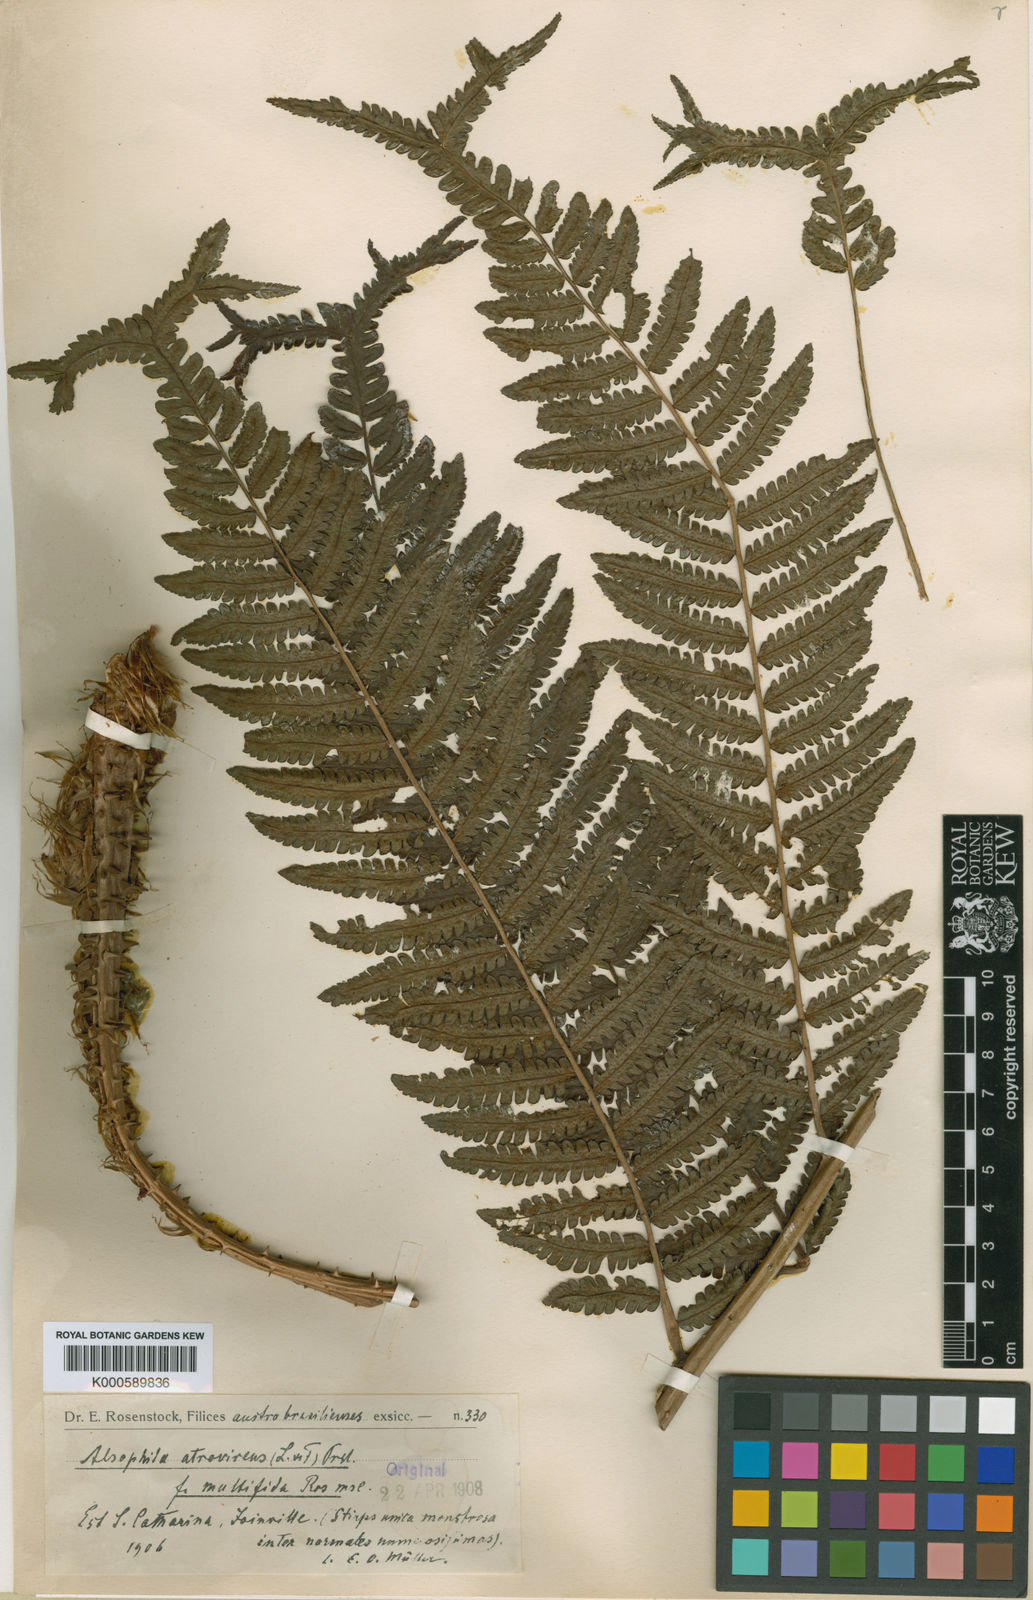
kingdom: Plantae
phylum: Tracheophyta
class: Polypodiopsida
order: Cyatheales
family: Cyatheaceae
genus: Cyathea
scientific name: Cyathea atrovirens
